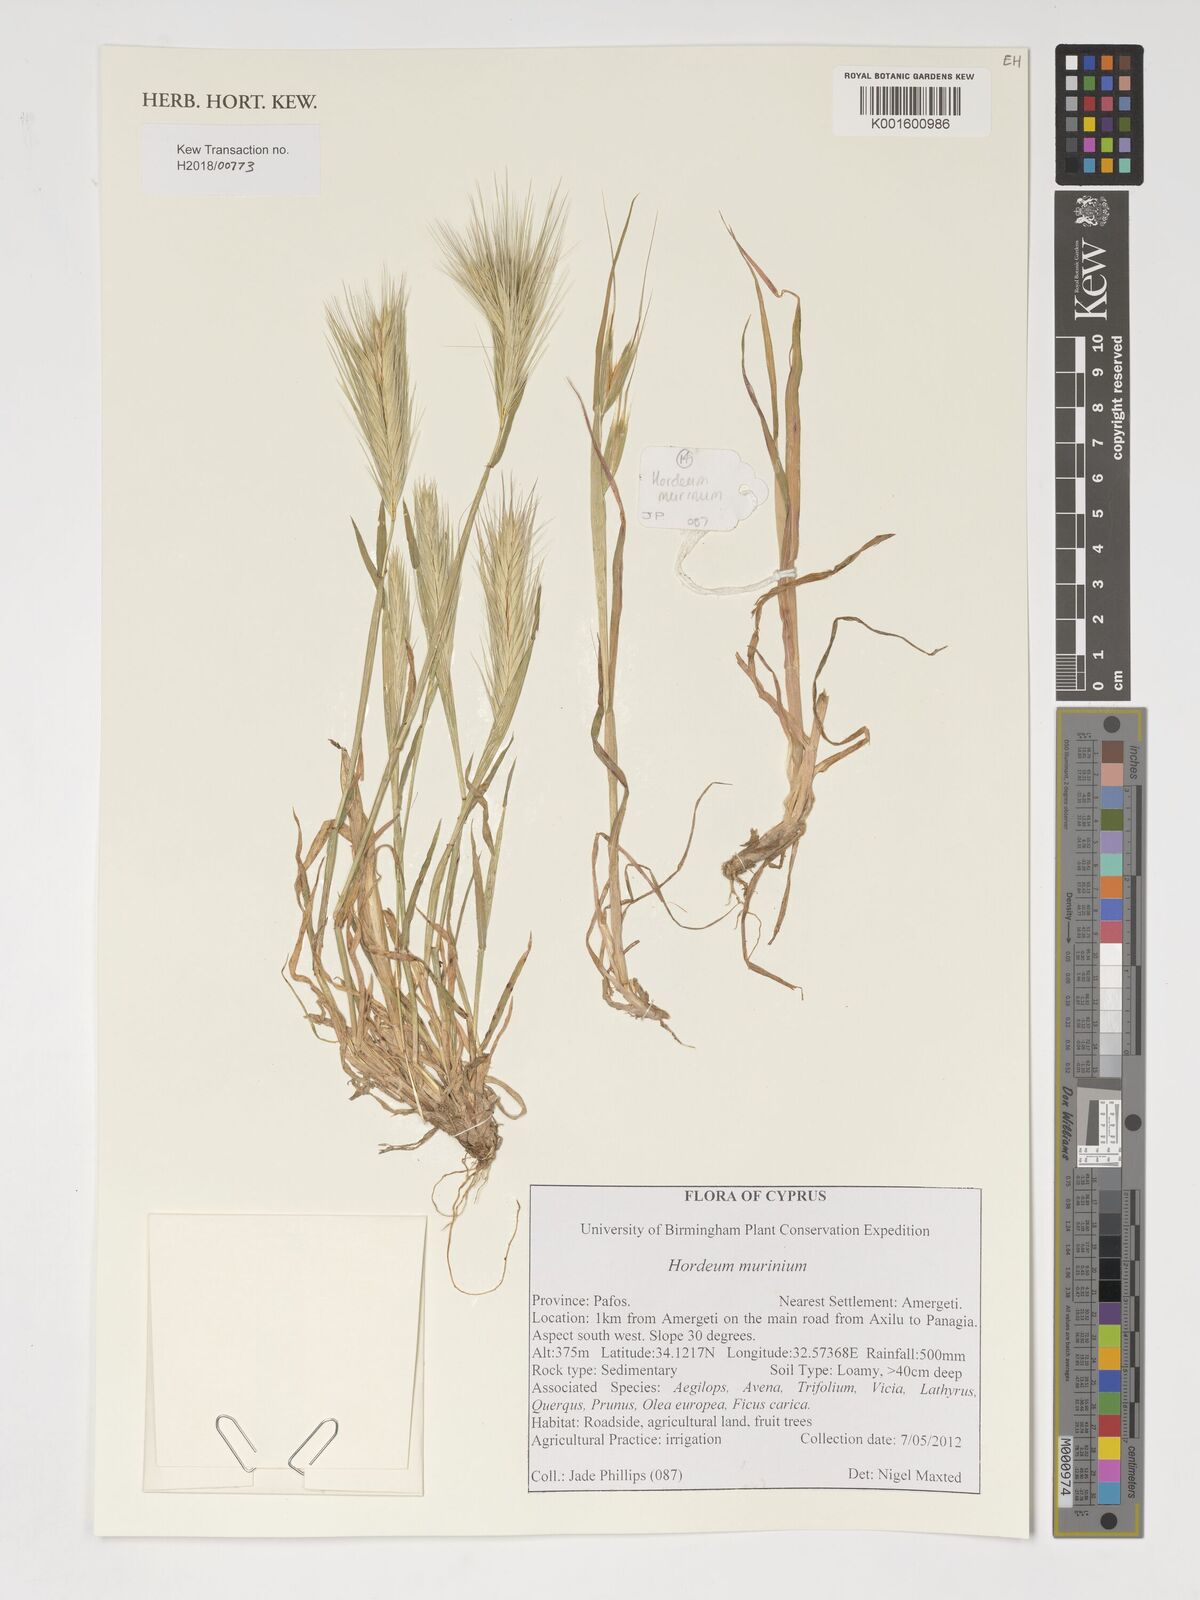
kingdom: Plantae
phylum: Tracheophyta
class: Liliopsida
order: Poales
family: Poaceae
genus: Hordeum
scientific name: Hordeum murinum
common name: Wall barley
